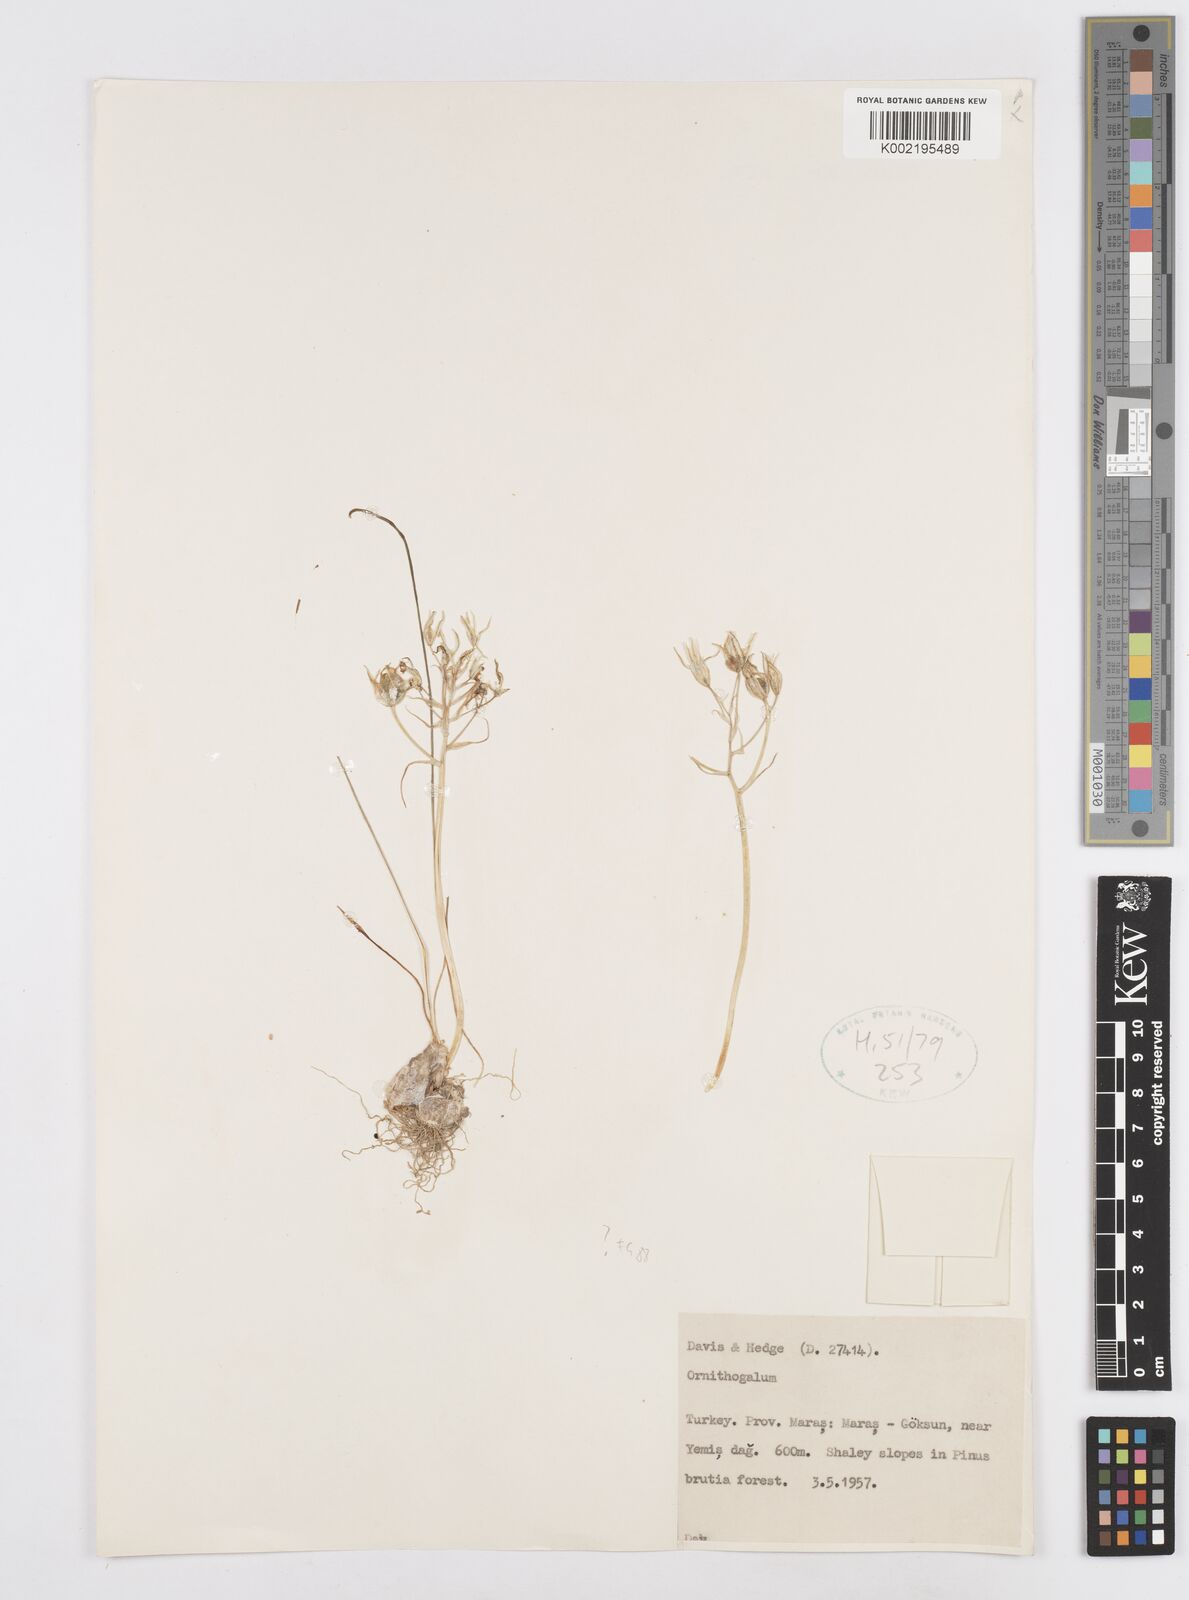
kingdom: Plantae
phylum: Tracheophyta
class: Liliopsida
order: Asparagales
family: Asparagaceae
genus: Ornithogalum
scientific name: Ornithogalum
